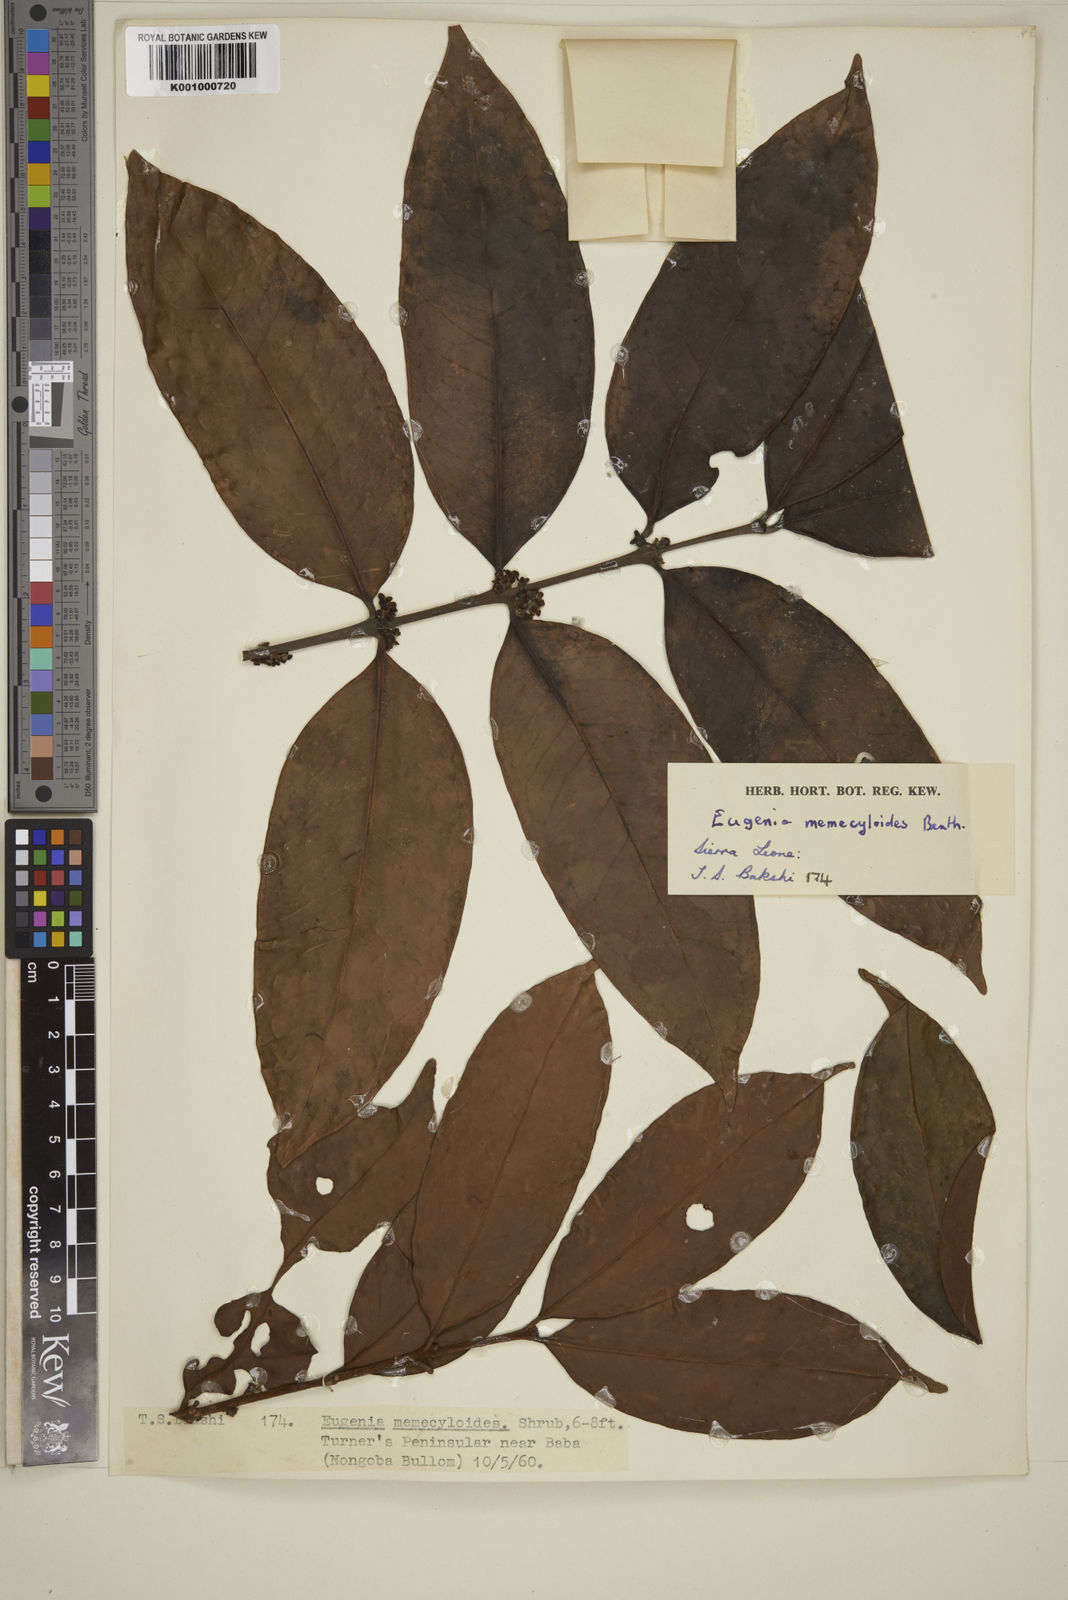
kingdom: Plantae
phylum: Tracheophyta
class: Magnoliopsida
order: Myrtales
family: Myrtaceae
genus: Eugenia
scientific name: Eugenia calophylloides
